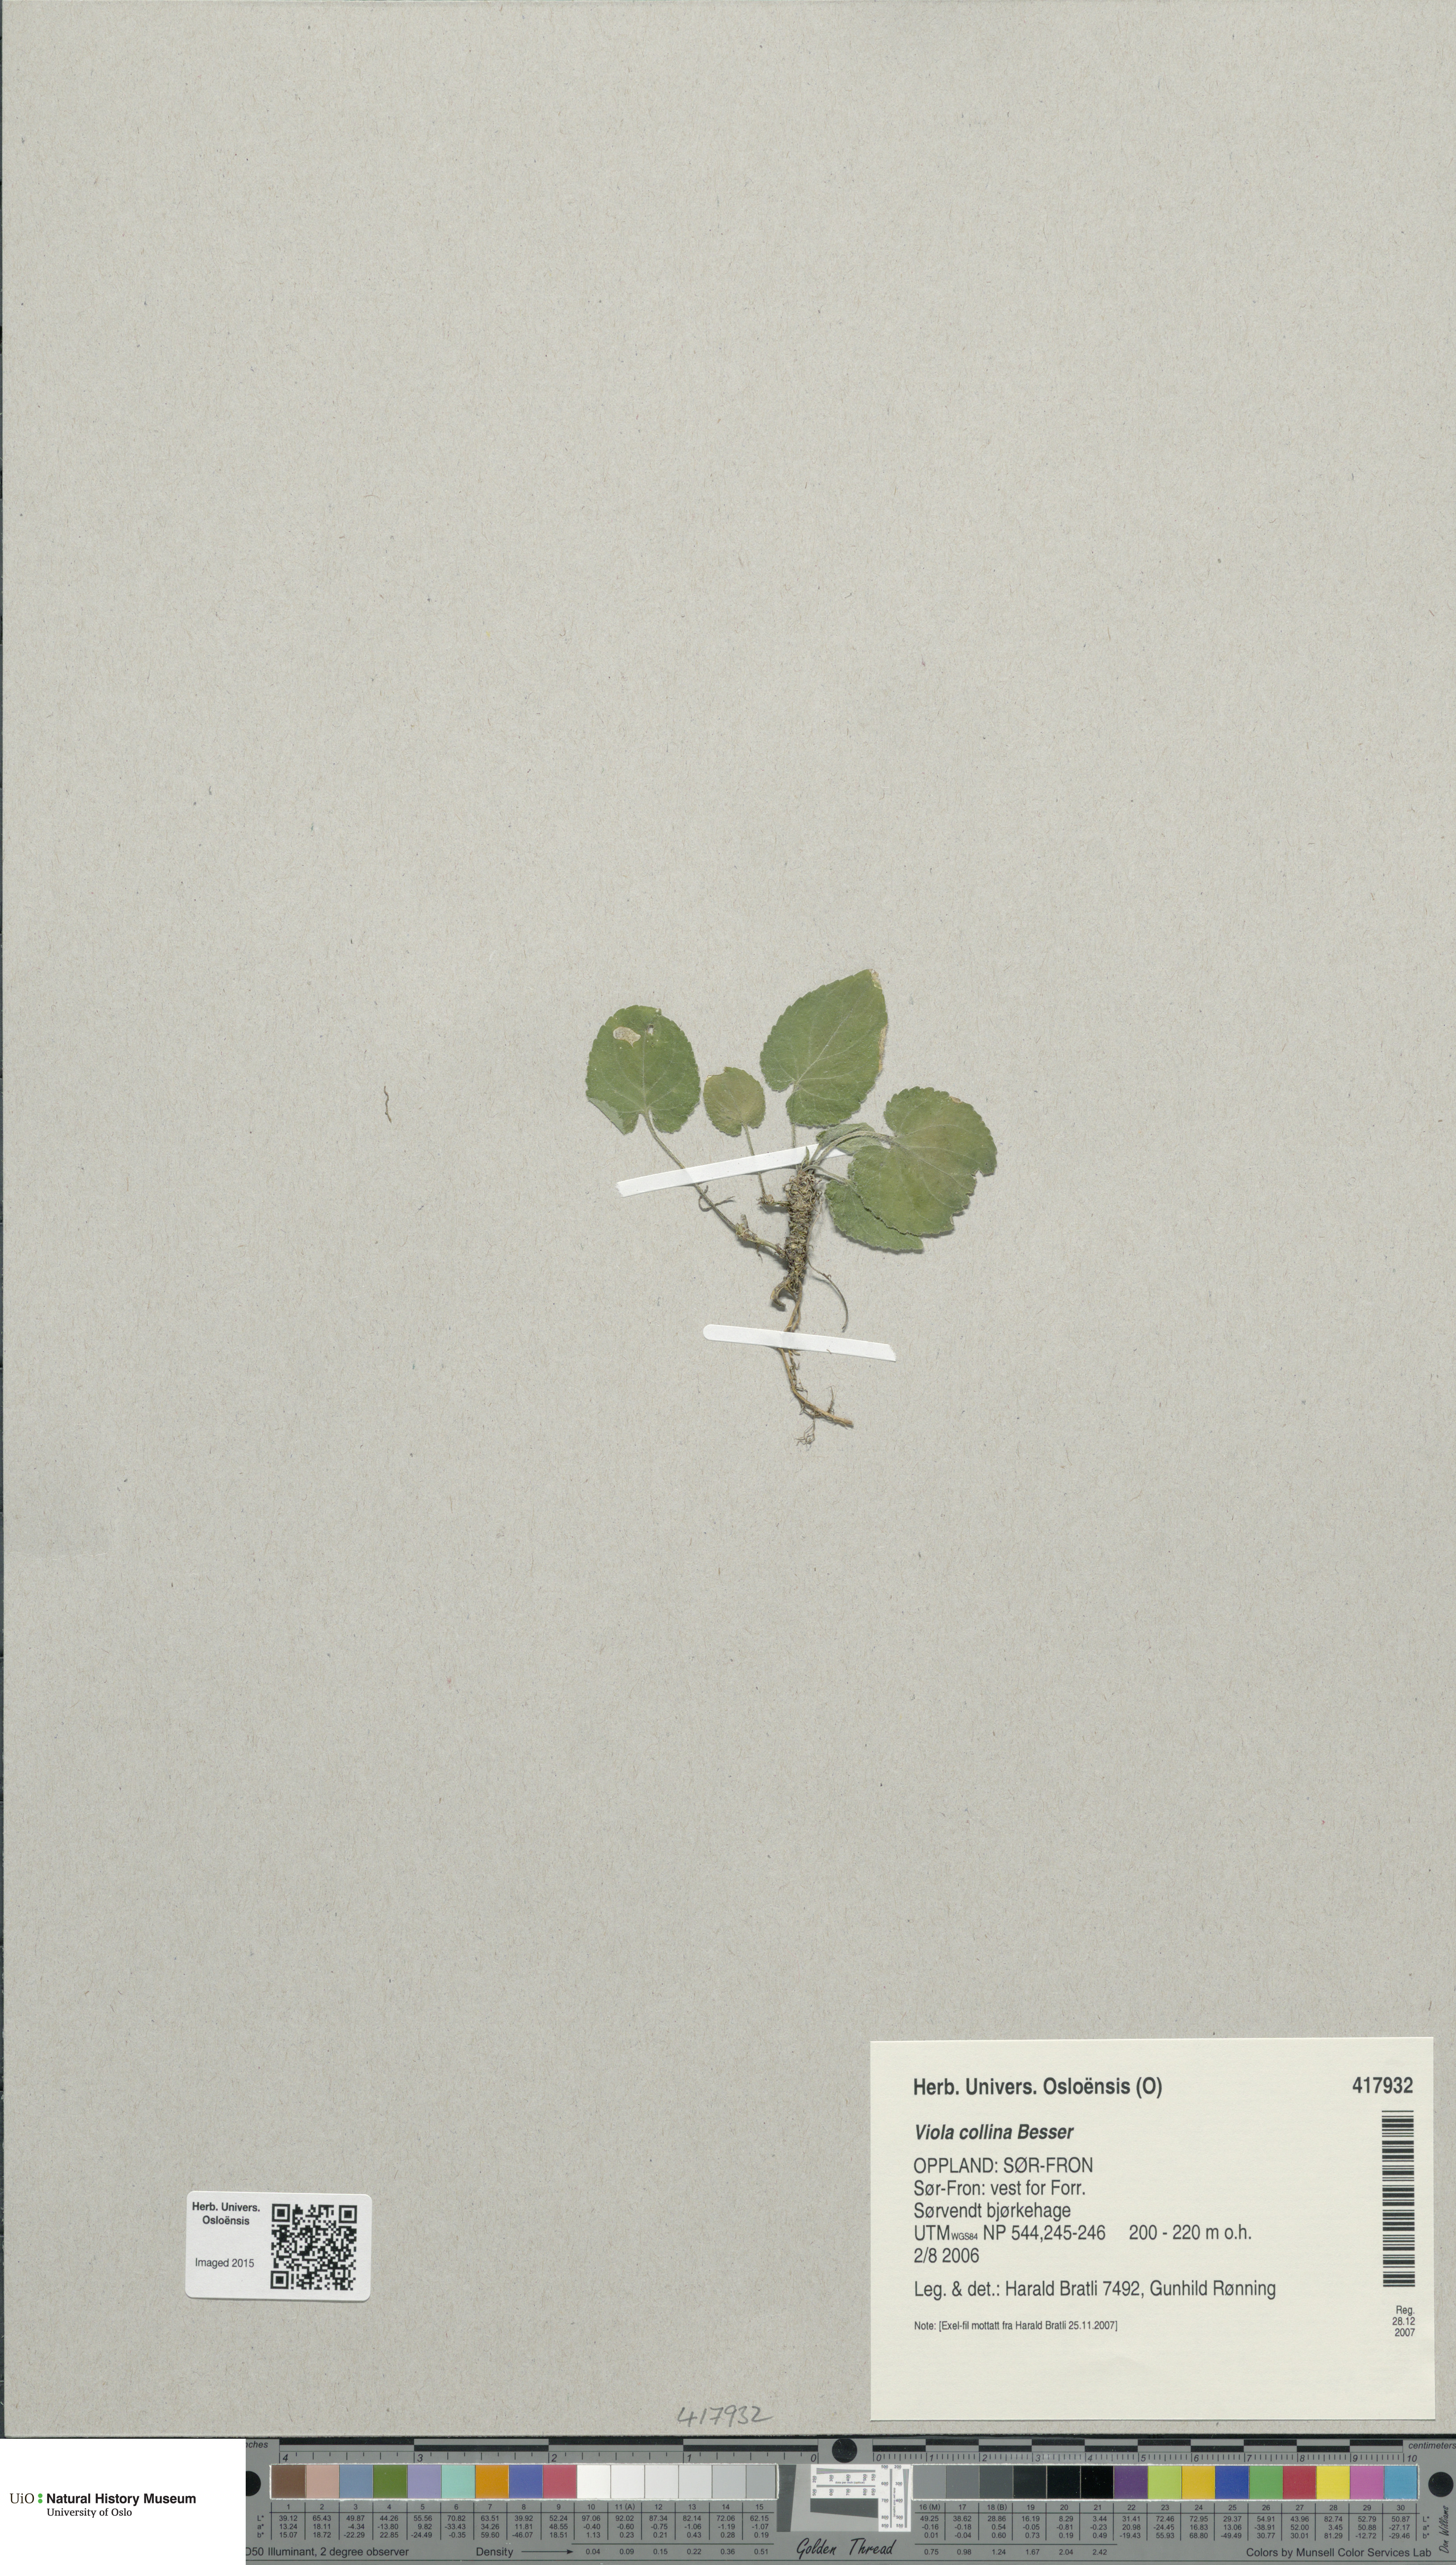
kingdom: Plantae
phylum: Tracheophyta
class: Magnoliopsida
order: Malpighiales
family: Violaceae
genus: Viola
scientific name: Viola collina
